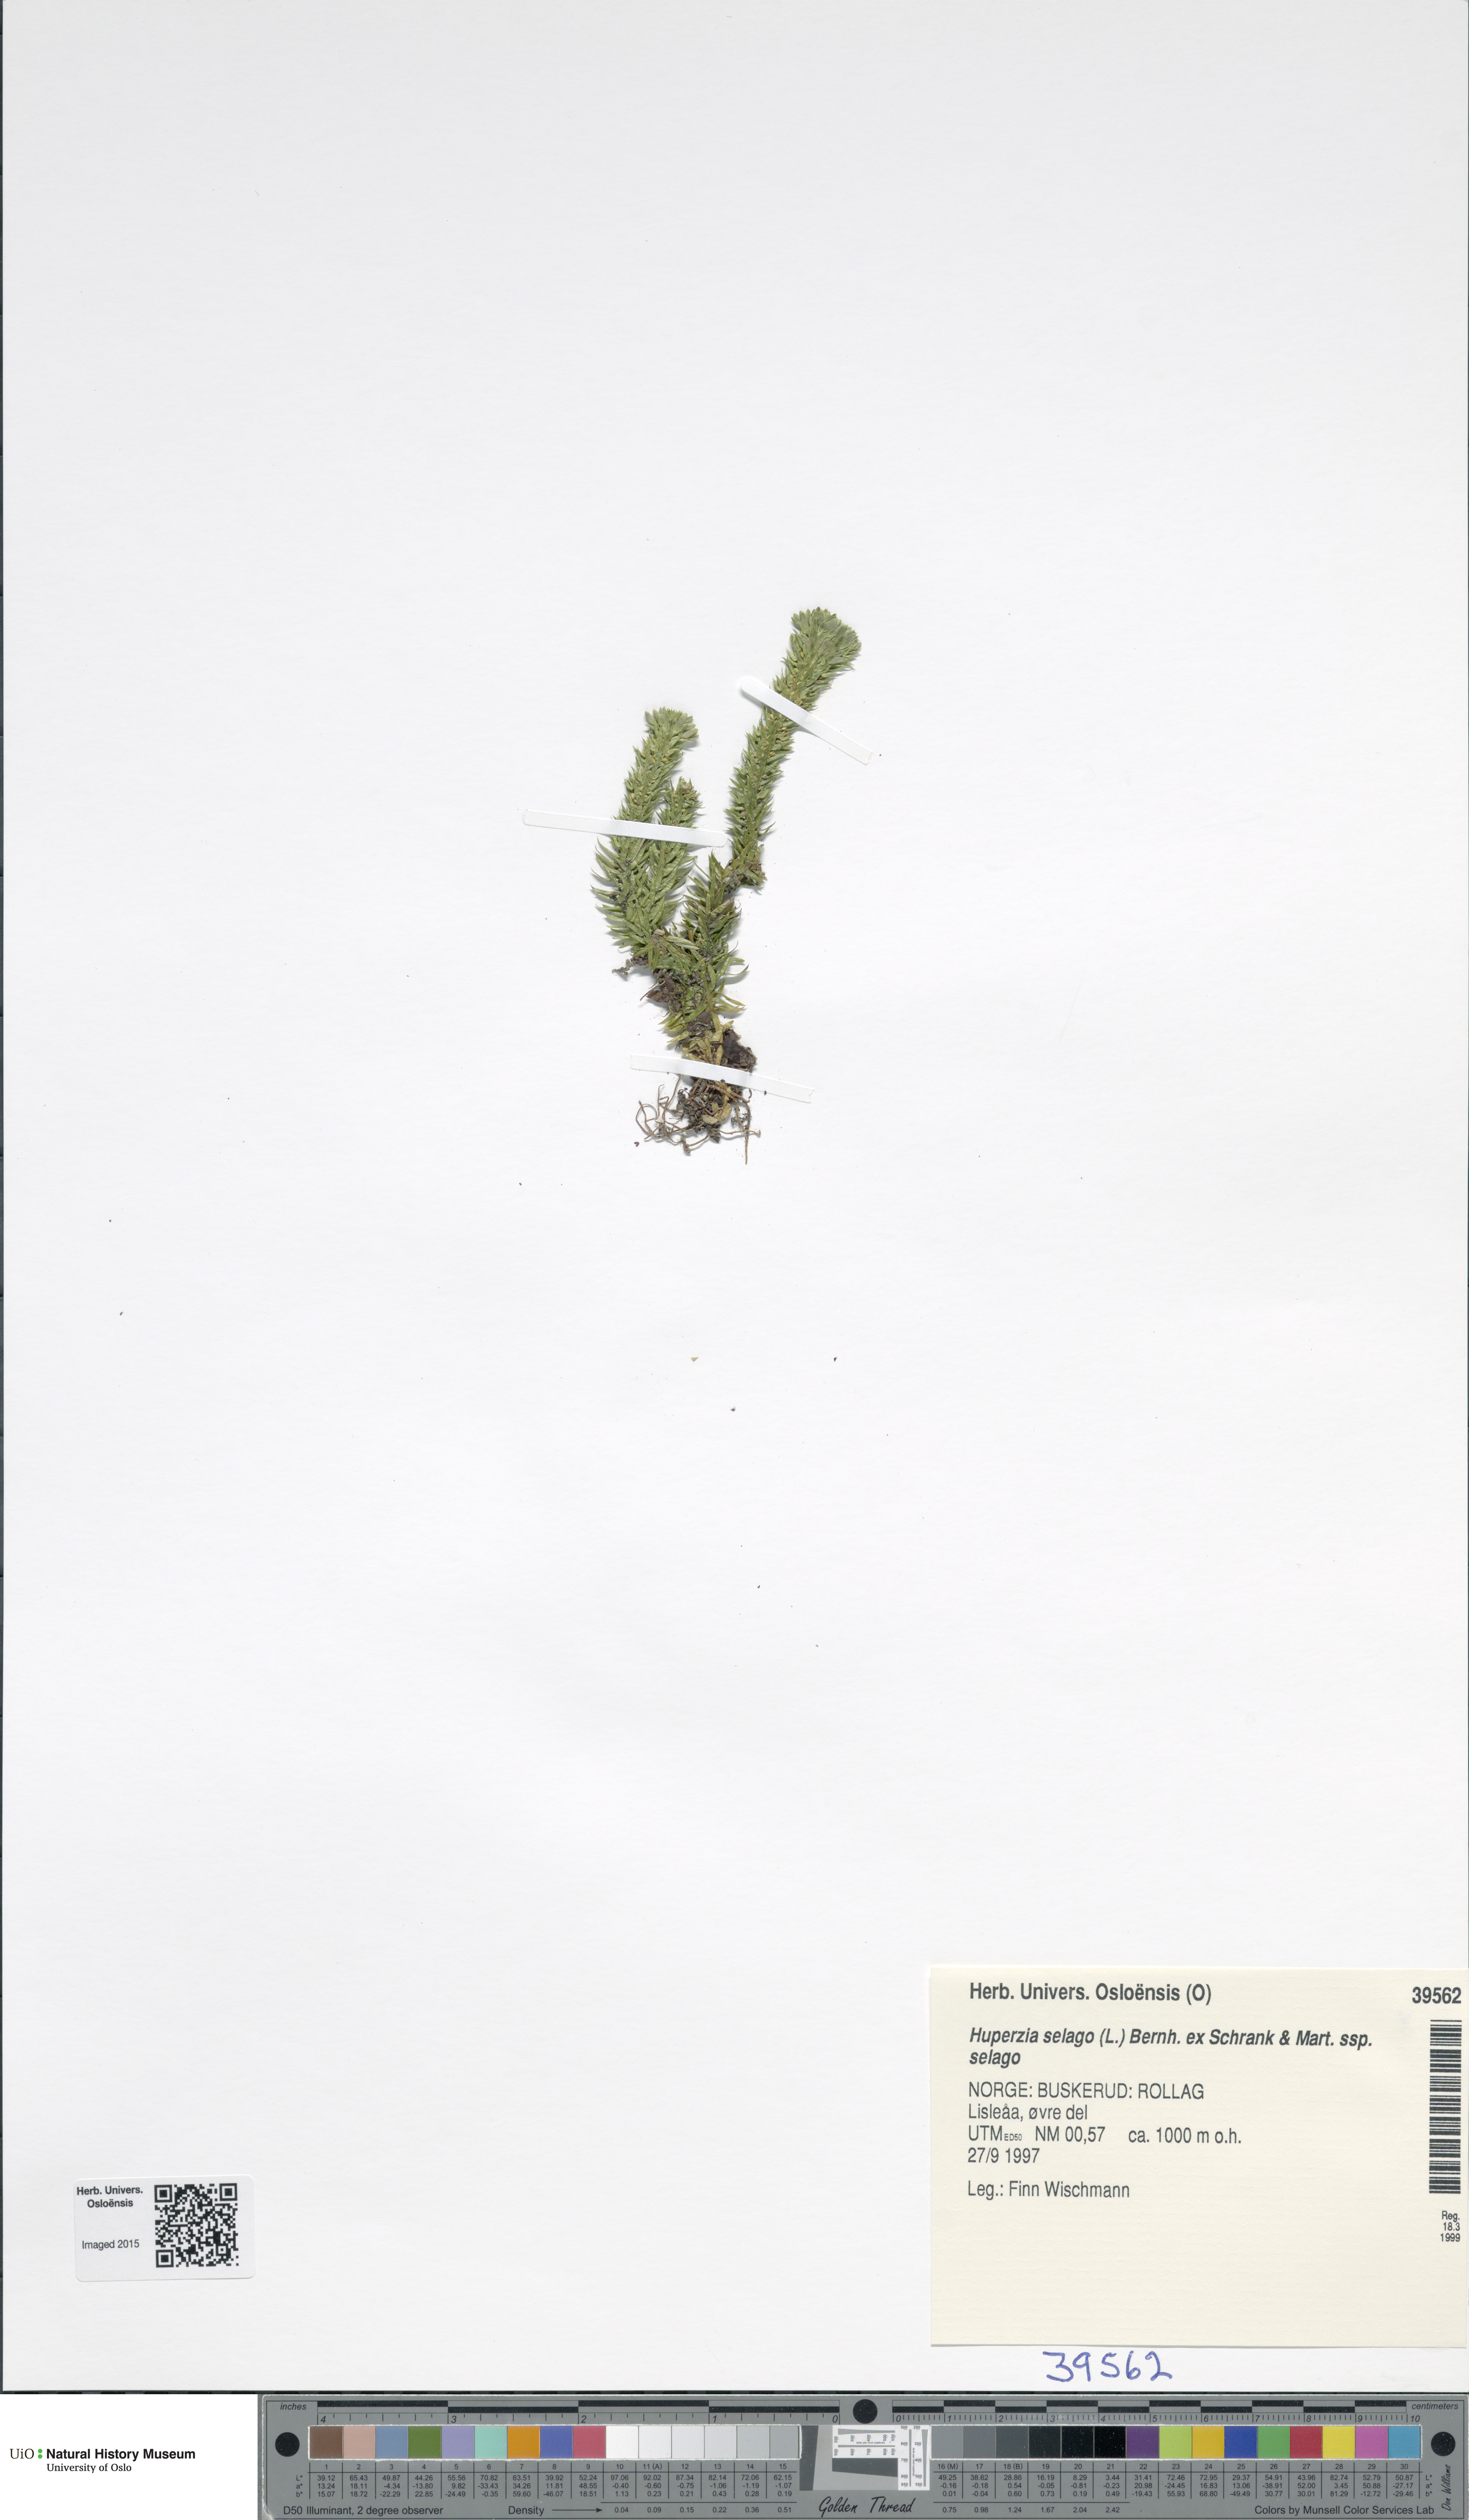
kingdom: Plantae
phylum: Tracheophyta
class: Lycopodiopsida
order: Lycopodiales
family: Lycopodiaceae
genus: Huperzia
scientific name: Huperzia selago
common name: Northern firmoss
